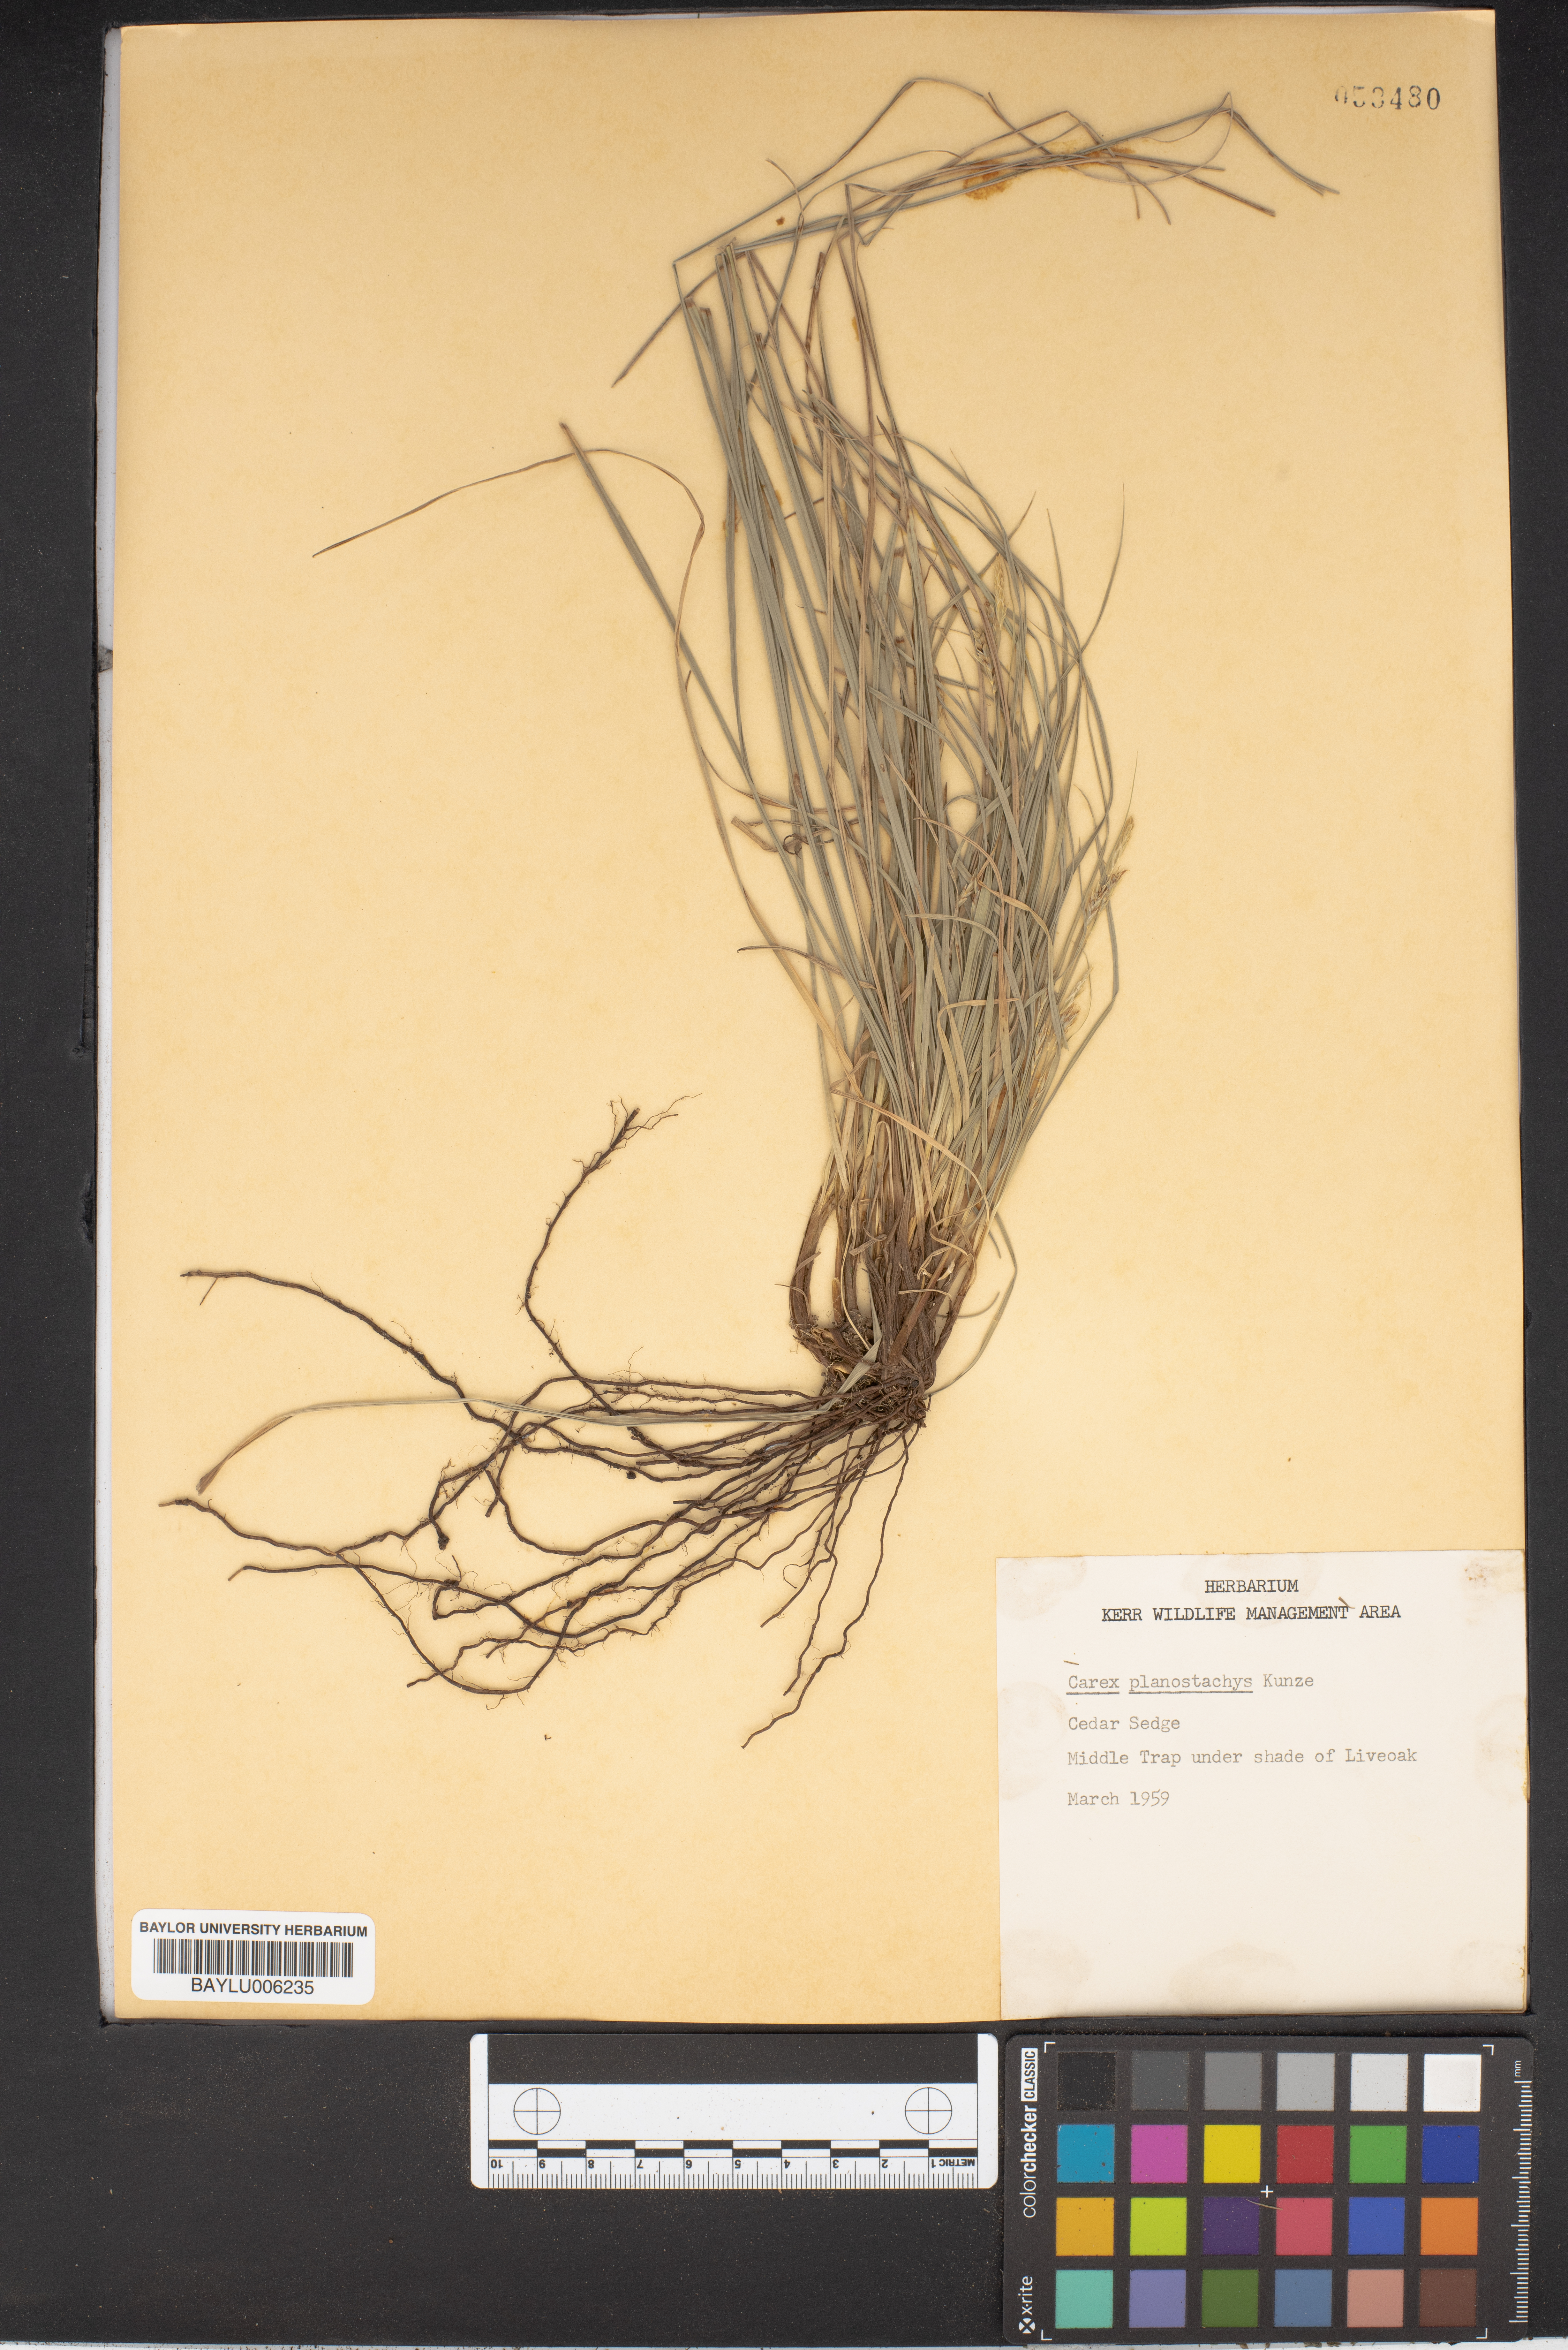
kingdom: Plantae
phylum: Tracheophyta
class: Liliopsida
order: Poales
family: Cyperaceae
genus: Carex
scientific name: Carex planostachys
